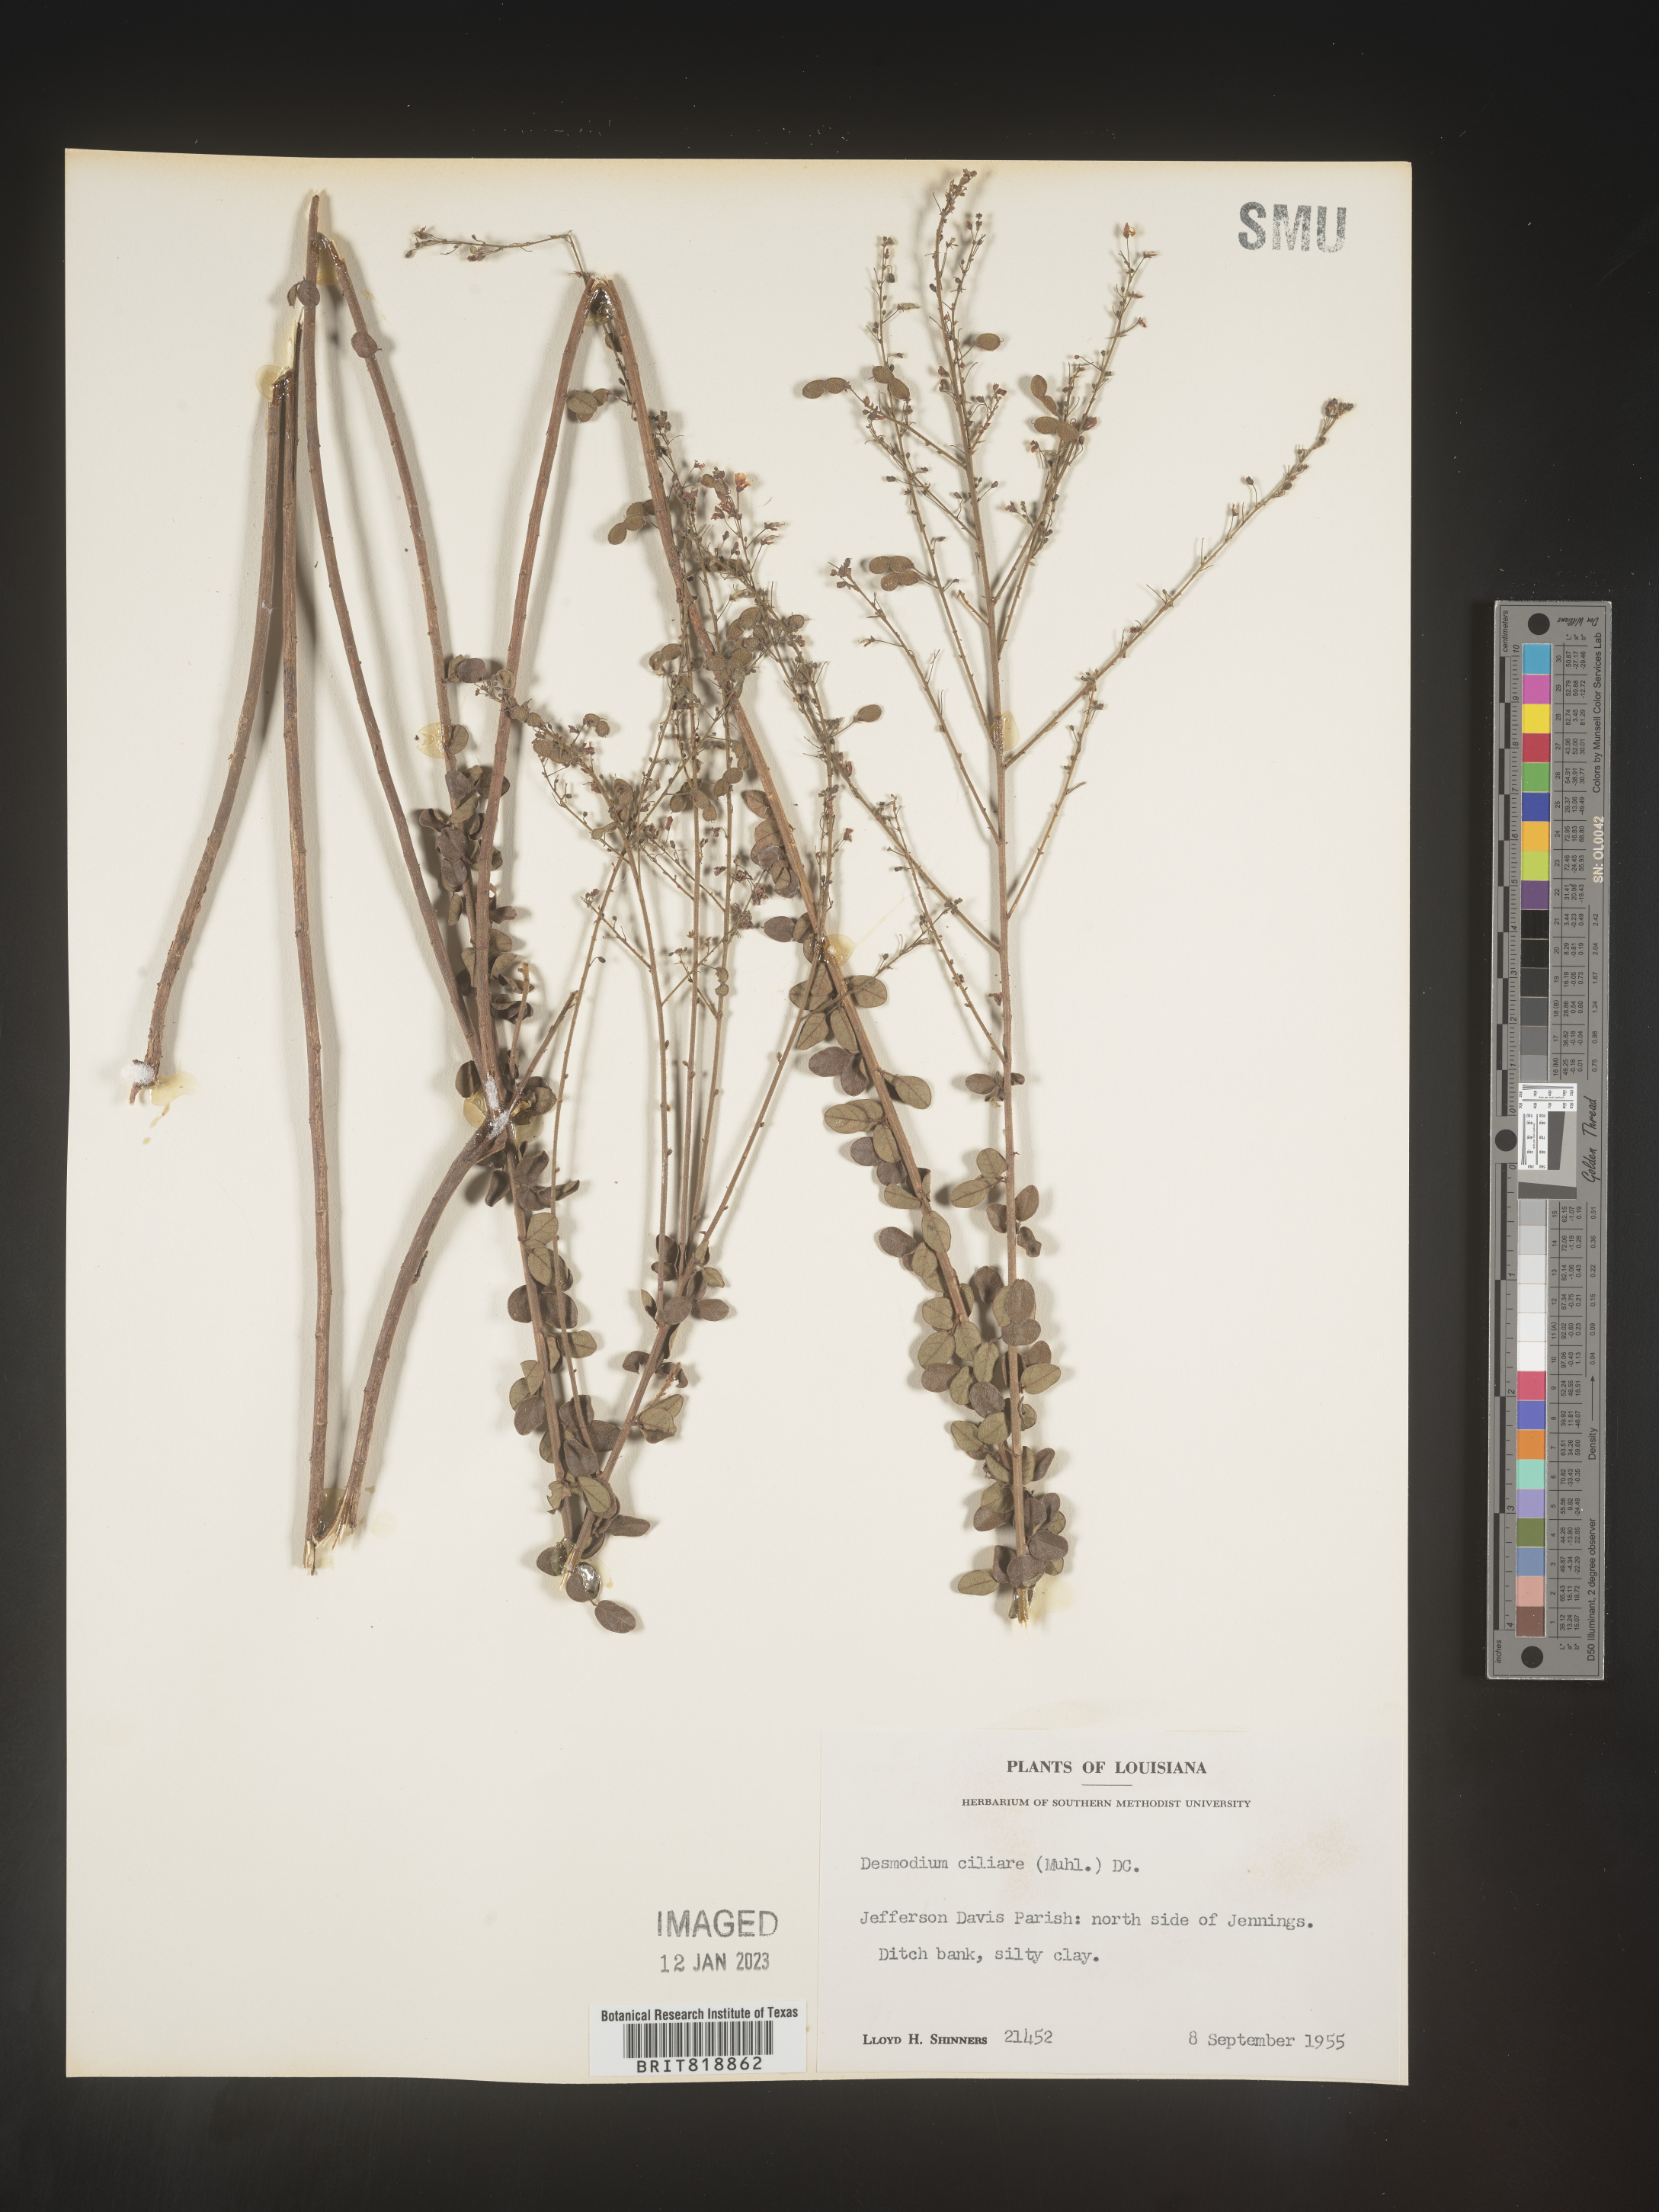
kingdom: Plantae
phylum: Tracheophyta
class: Magnoliopsida
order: Fabales
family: Fabaceae
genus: Desmodium
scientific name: Desmodium ciliare
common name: Hairy small-leaf ticktrefoil
